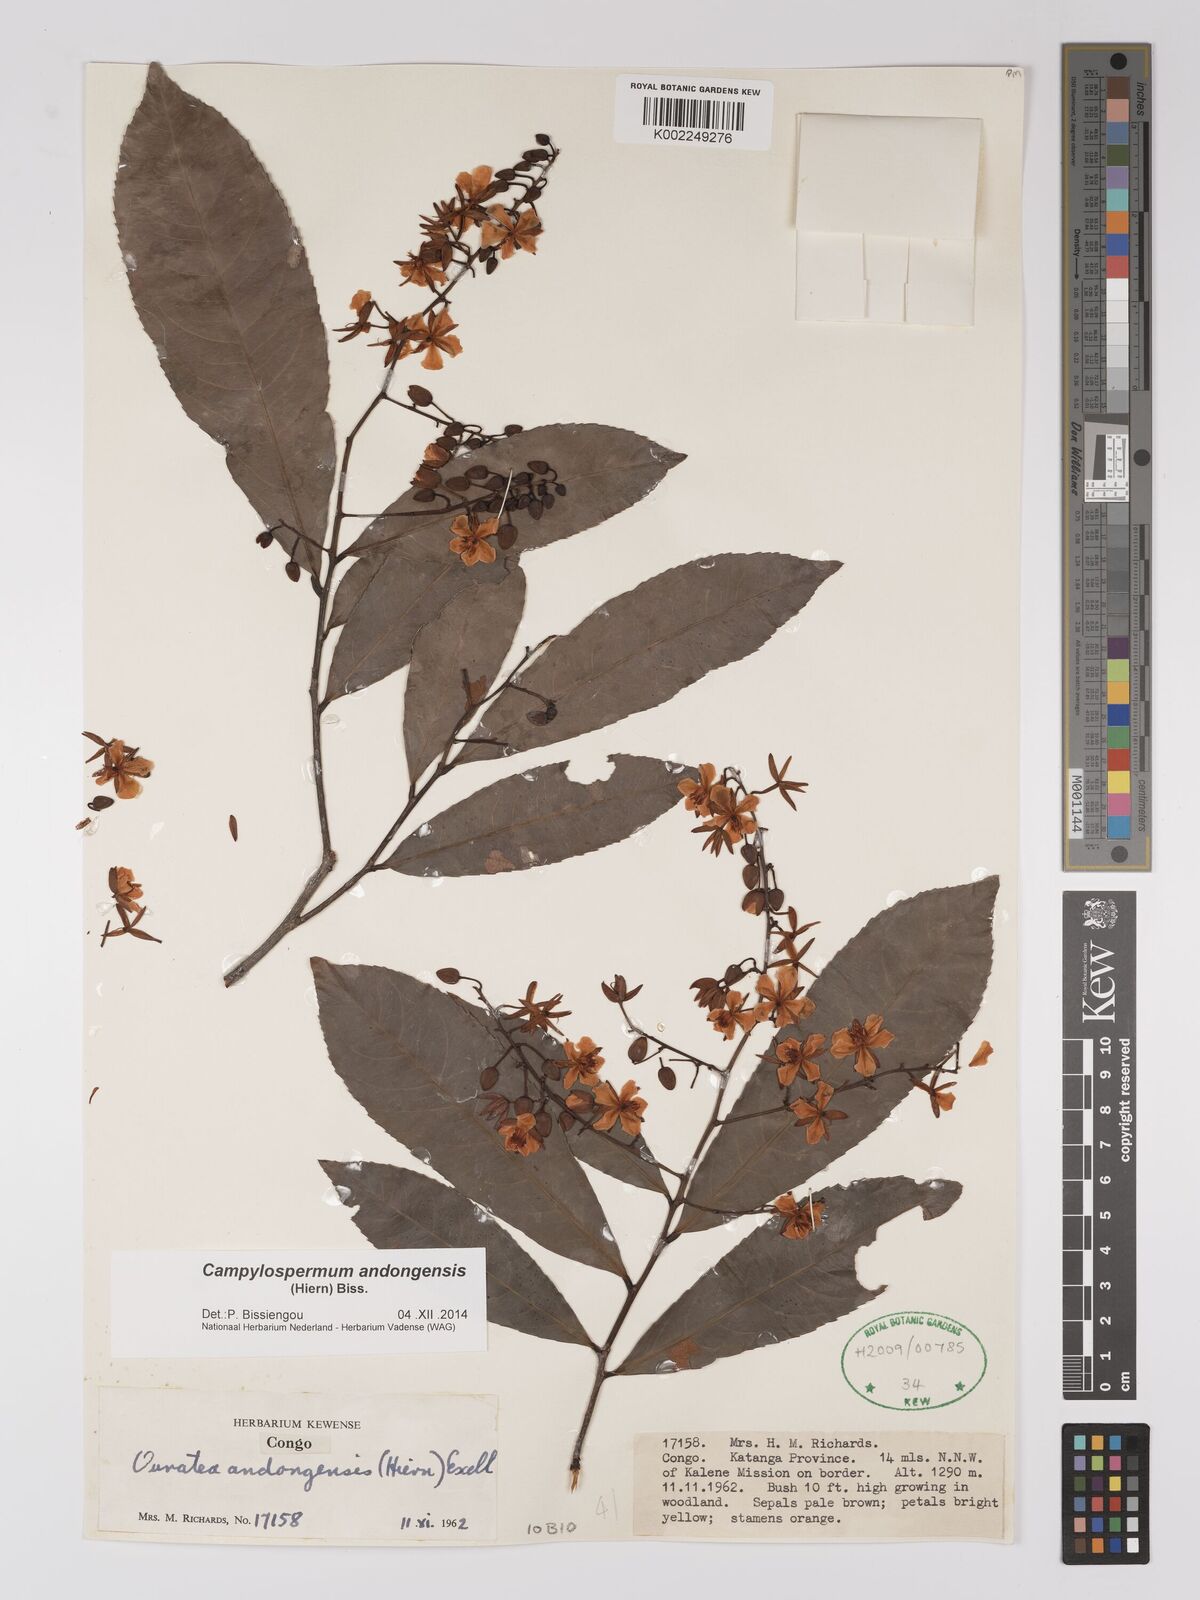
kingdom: Plantae
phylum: Tracheophyta
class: Magnoliopsida
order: Malpighiales
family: Ochnaceae
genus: Campylospermum
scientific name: Campylospermum andongense
